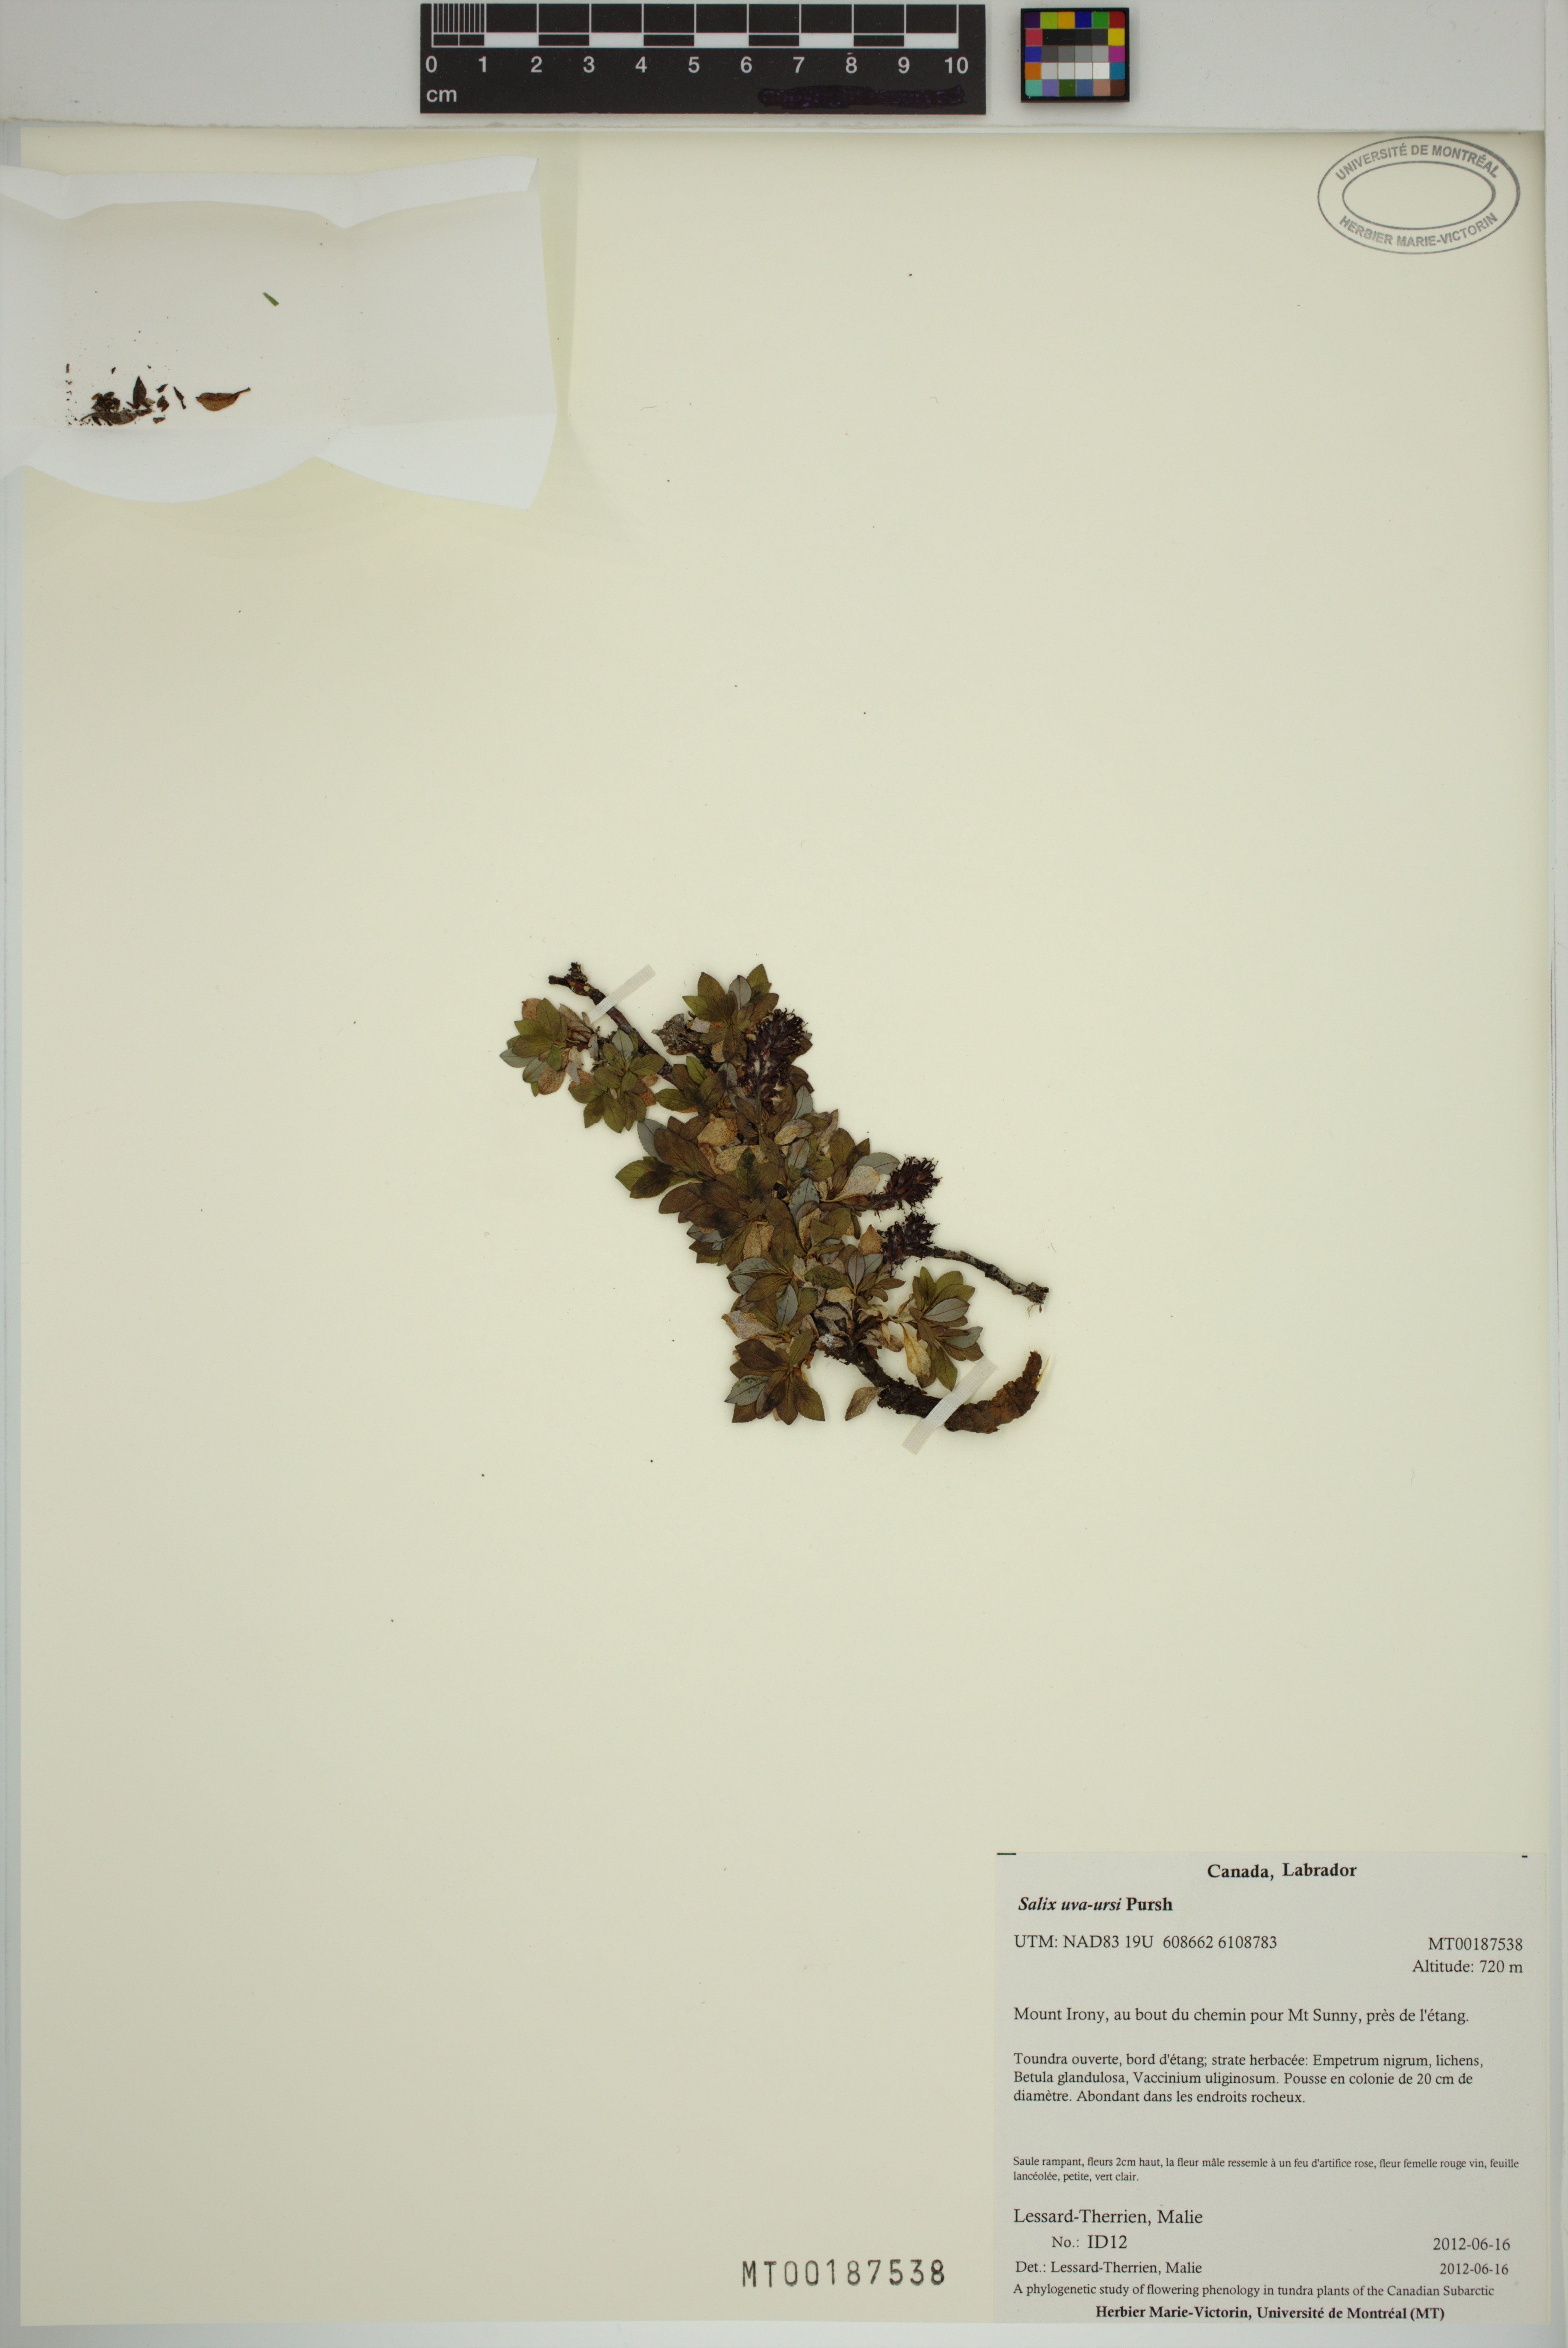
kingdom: Plantae
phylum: Tracheophyta
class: Magnoliopsida
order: Malpighiales
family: Salicaceae
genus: Salix
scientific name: Salix uva-ursi
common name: Bearberry willow
